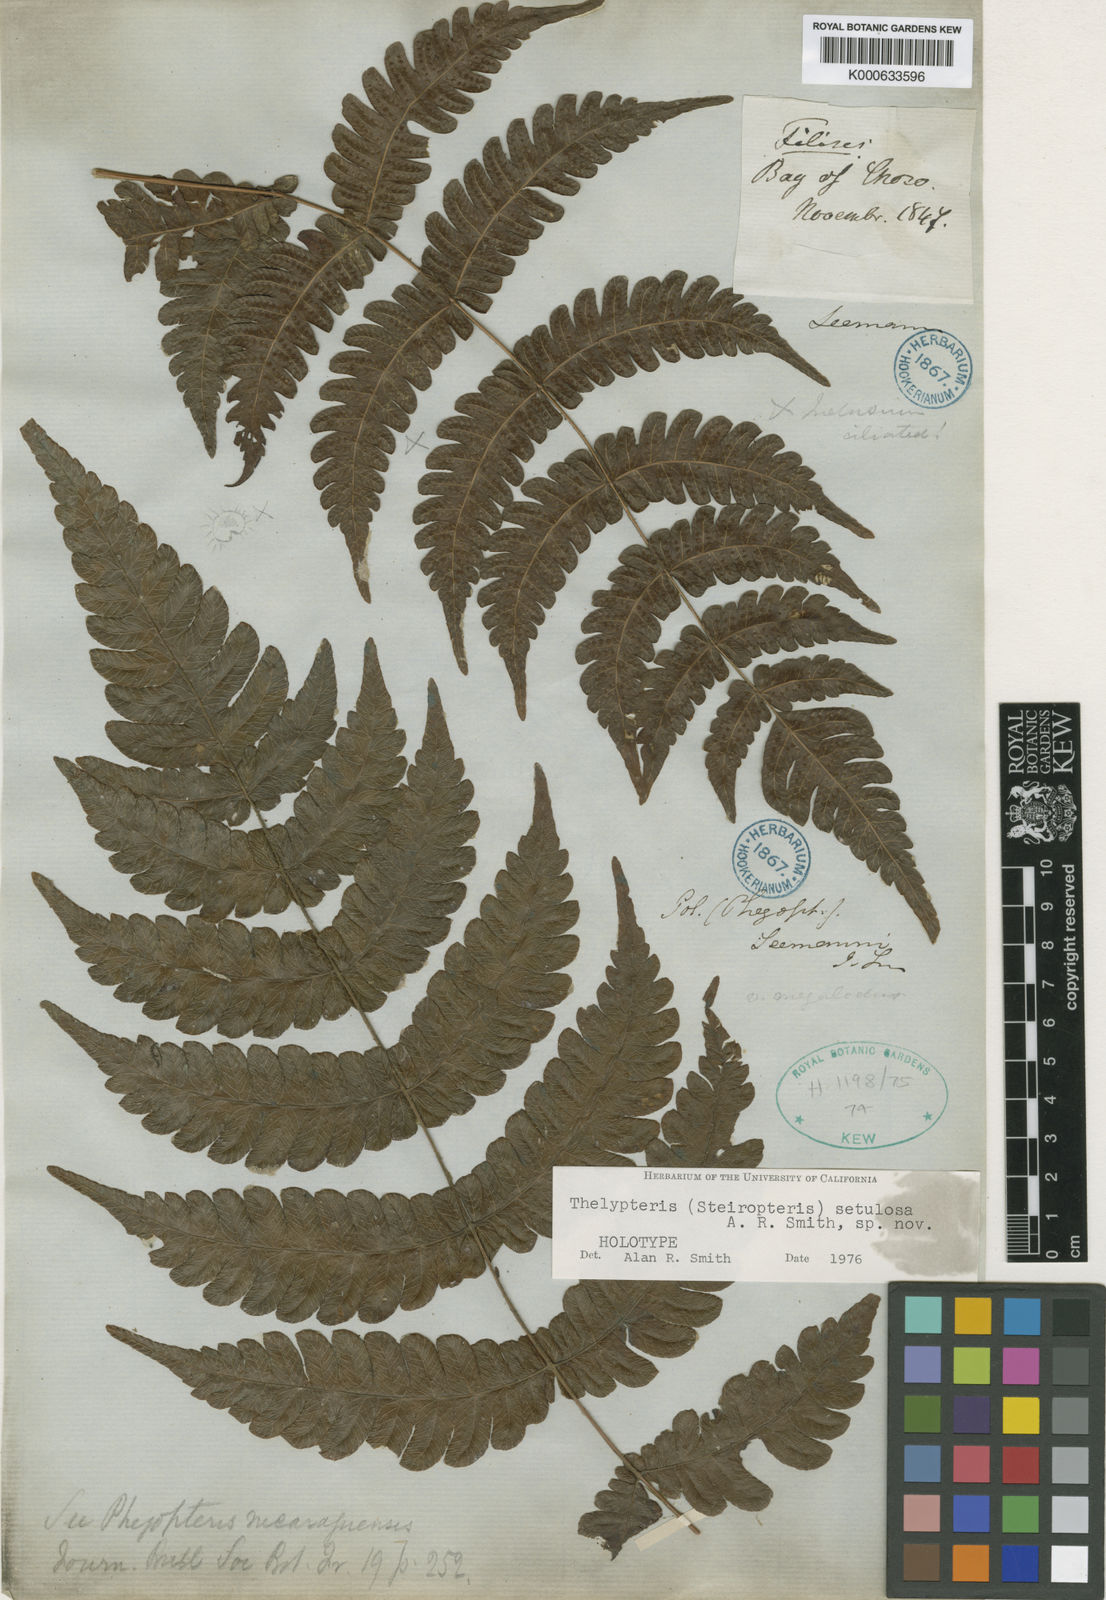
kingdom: Plantae
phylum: Tracheophyta
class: Polypodiopsida
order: Polypodiales
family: Thelypteridaceae
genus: Steiropteris
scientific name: Steiropteris
